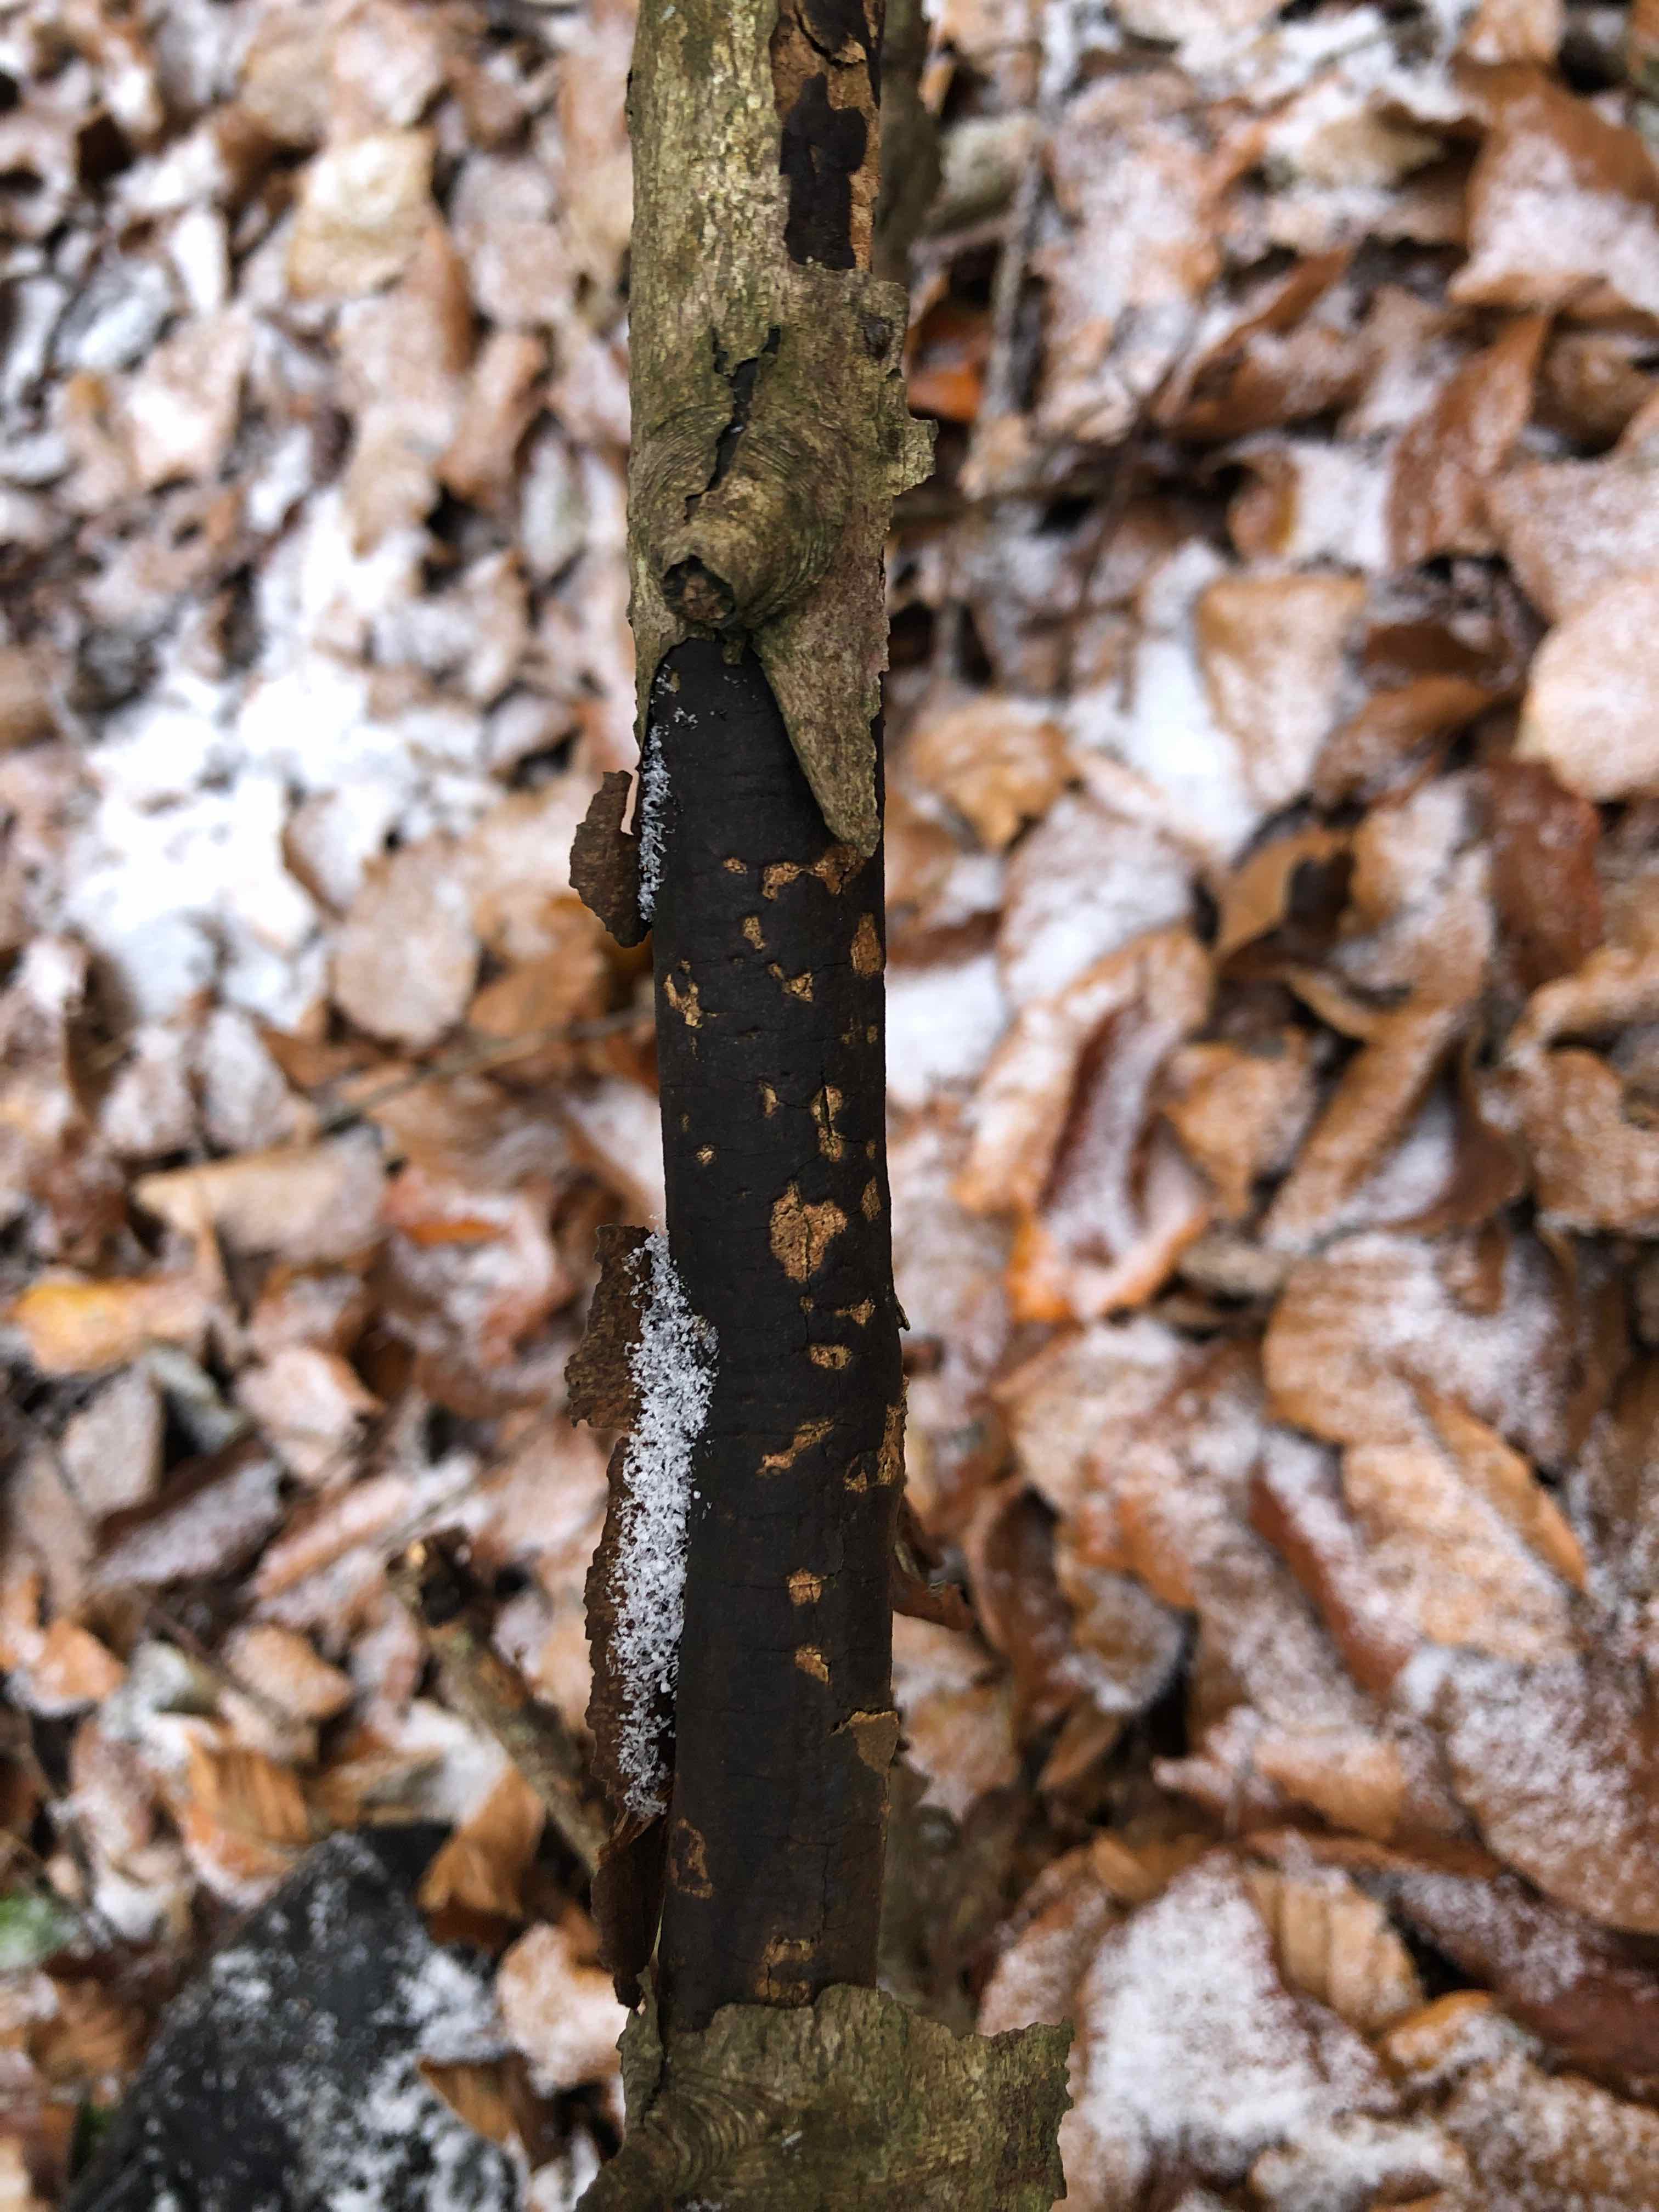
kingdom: Fungi
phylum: Ascomycota
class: Sordariomycetes
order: Xylariales
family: Diatrypaceae
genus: Diatrype
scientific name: Diatrype decorticata
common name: barksprænger-kulskorpe
